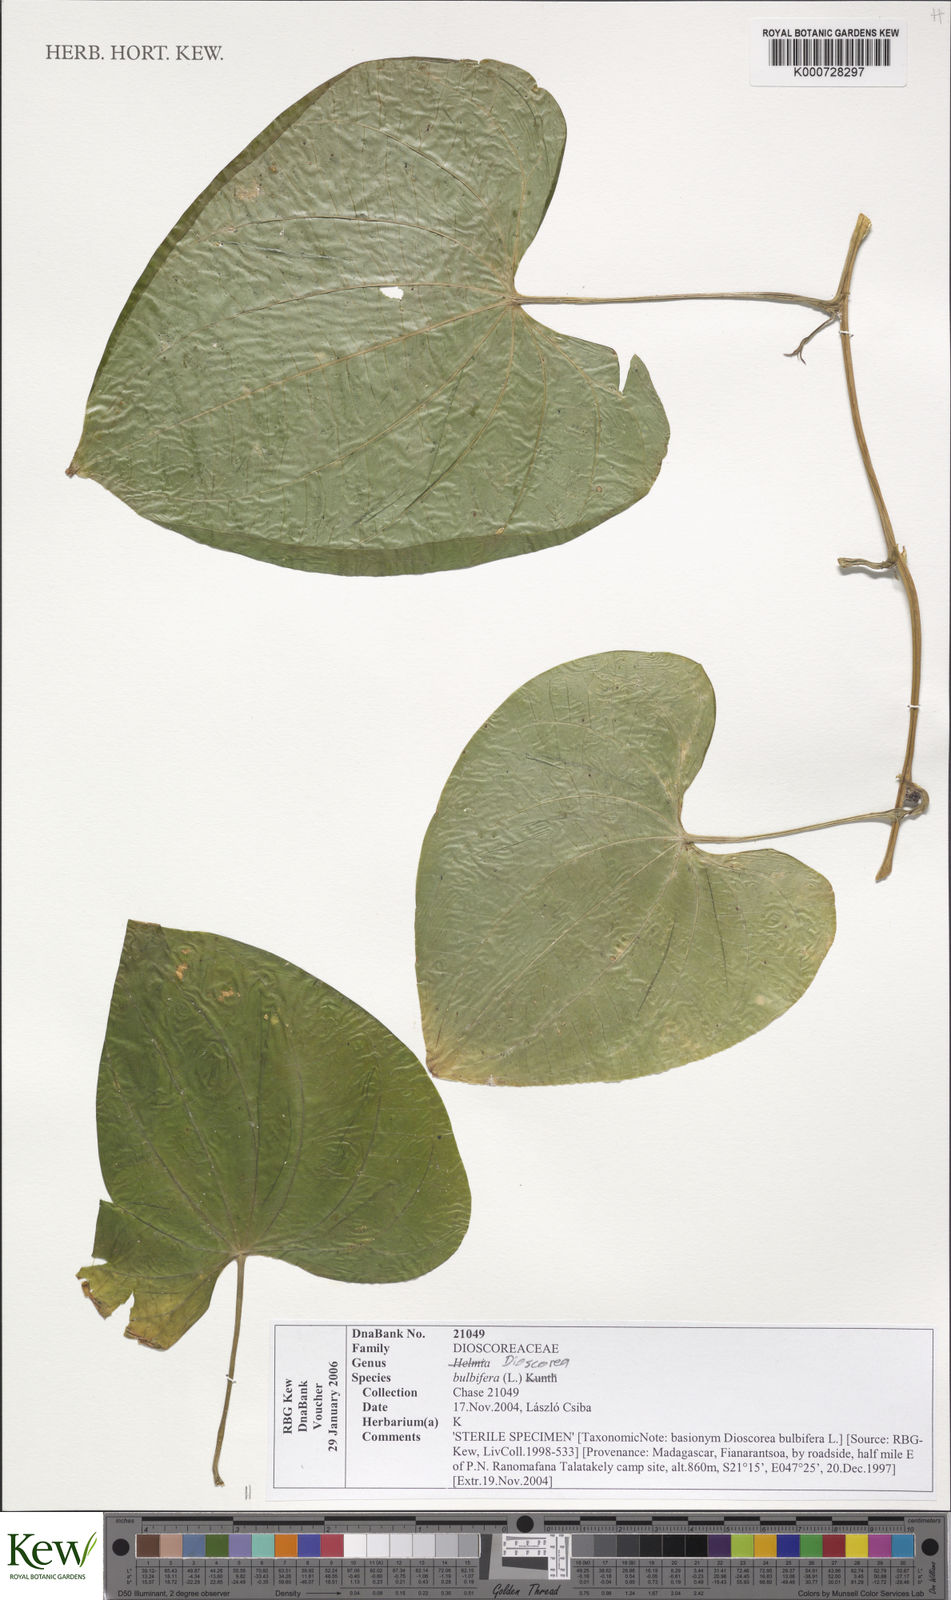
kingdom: Plantae
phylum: Tracheophyta
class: Liliopsida
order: Dioscoreales
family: Dioscoreaceae
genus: Dioscorea
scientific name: Dioscorea bulbifera
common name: Air yam
